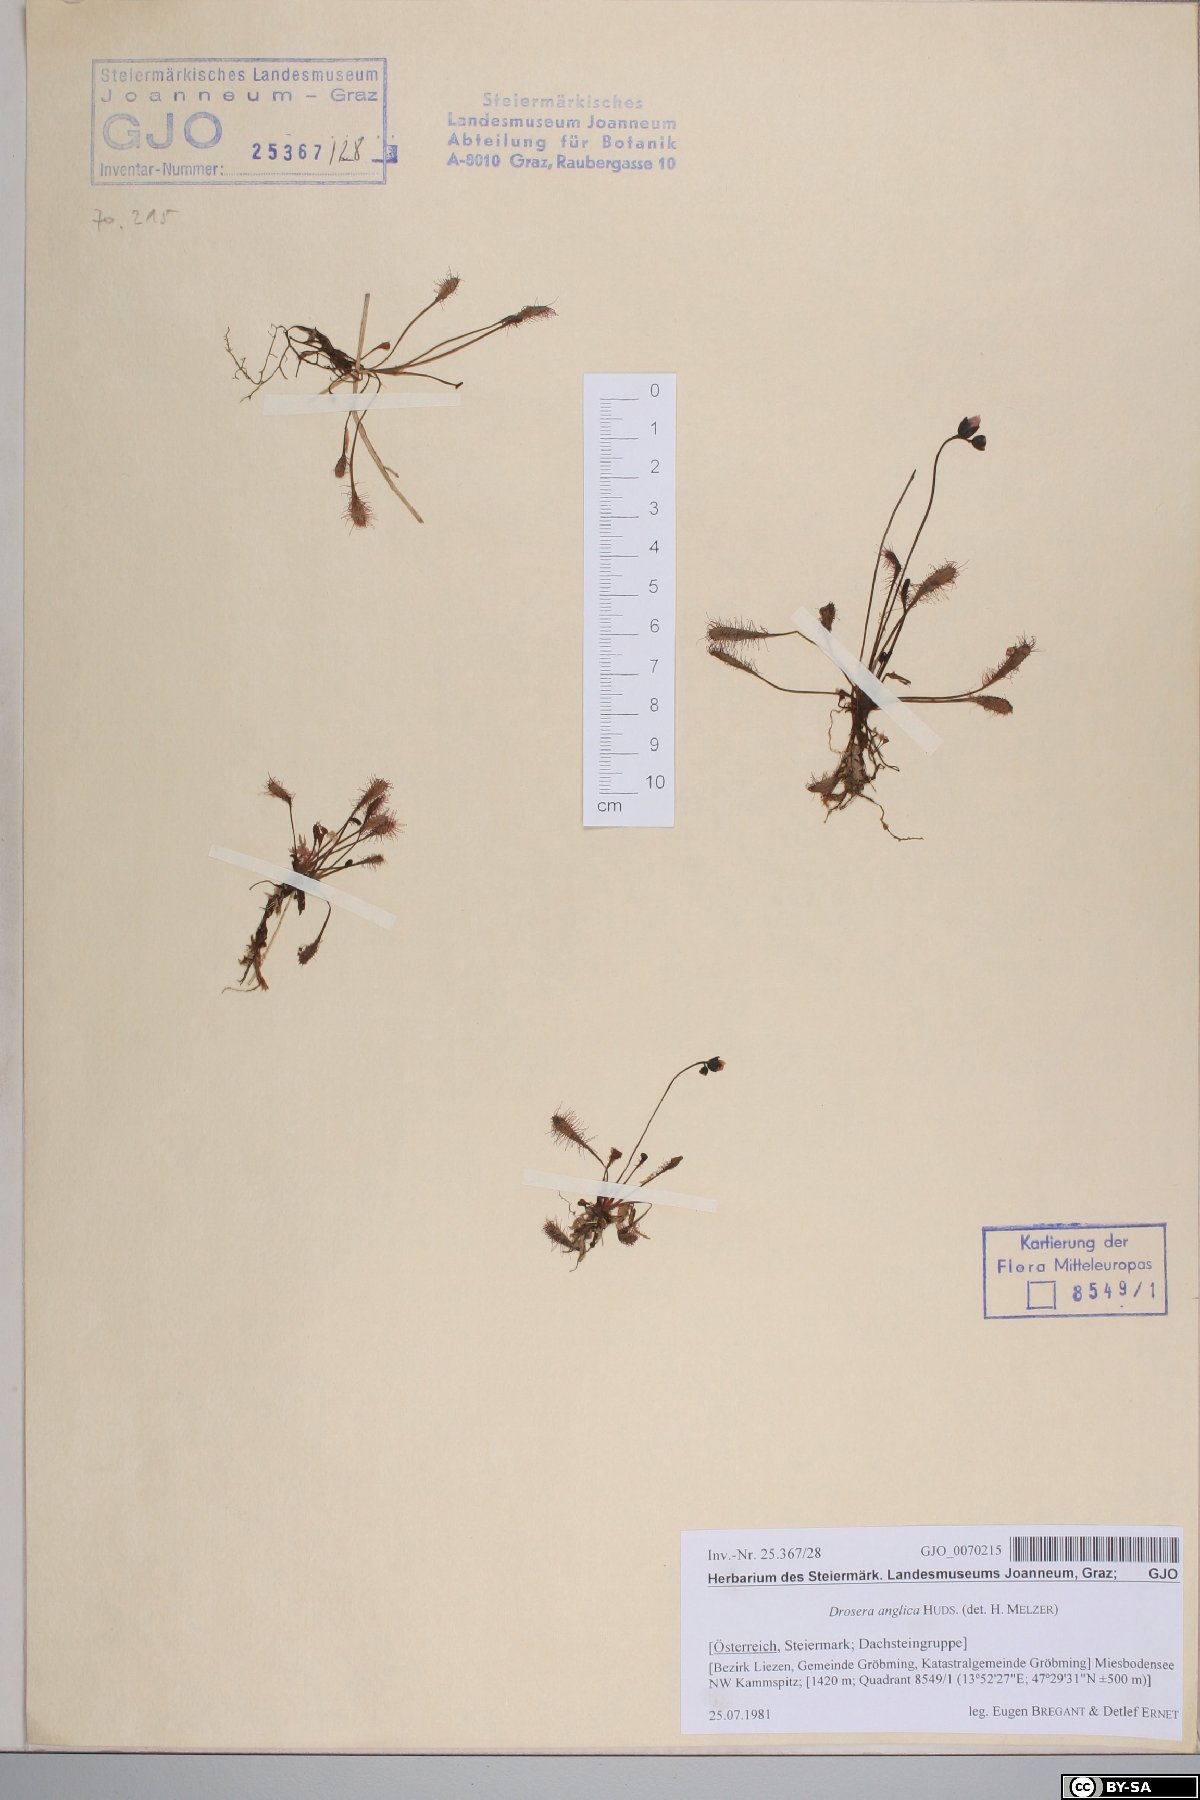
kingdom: Plantae
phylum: Tracheophyta
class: Magnoliopsida
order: Caryophyllales
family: Droseraceae
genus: Drosera
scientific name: Drosera anglica
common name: Great sundew
